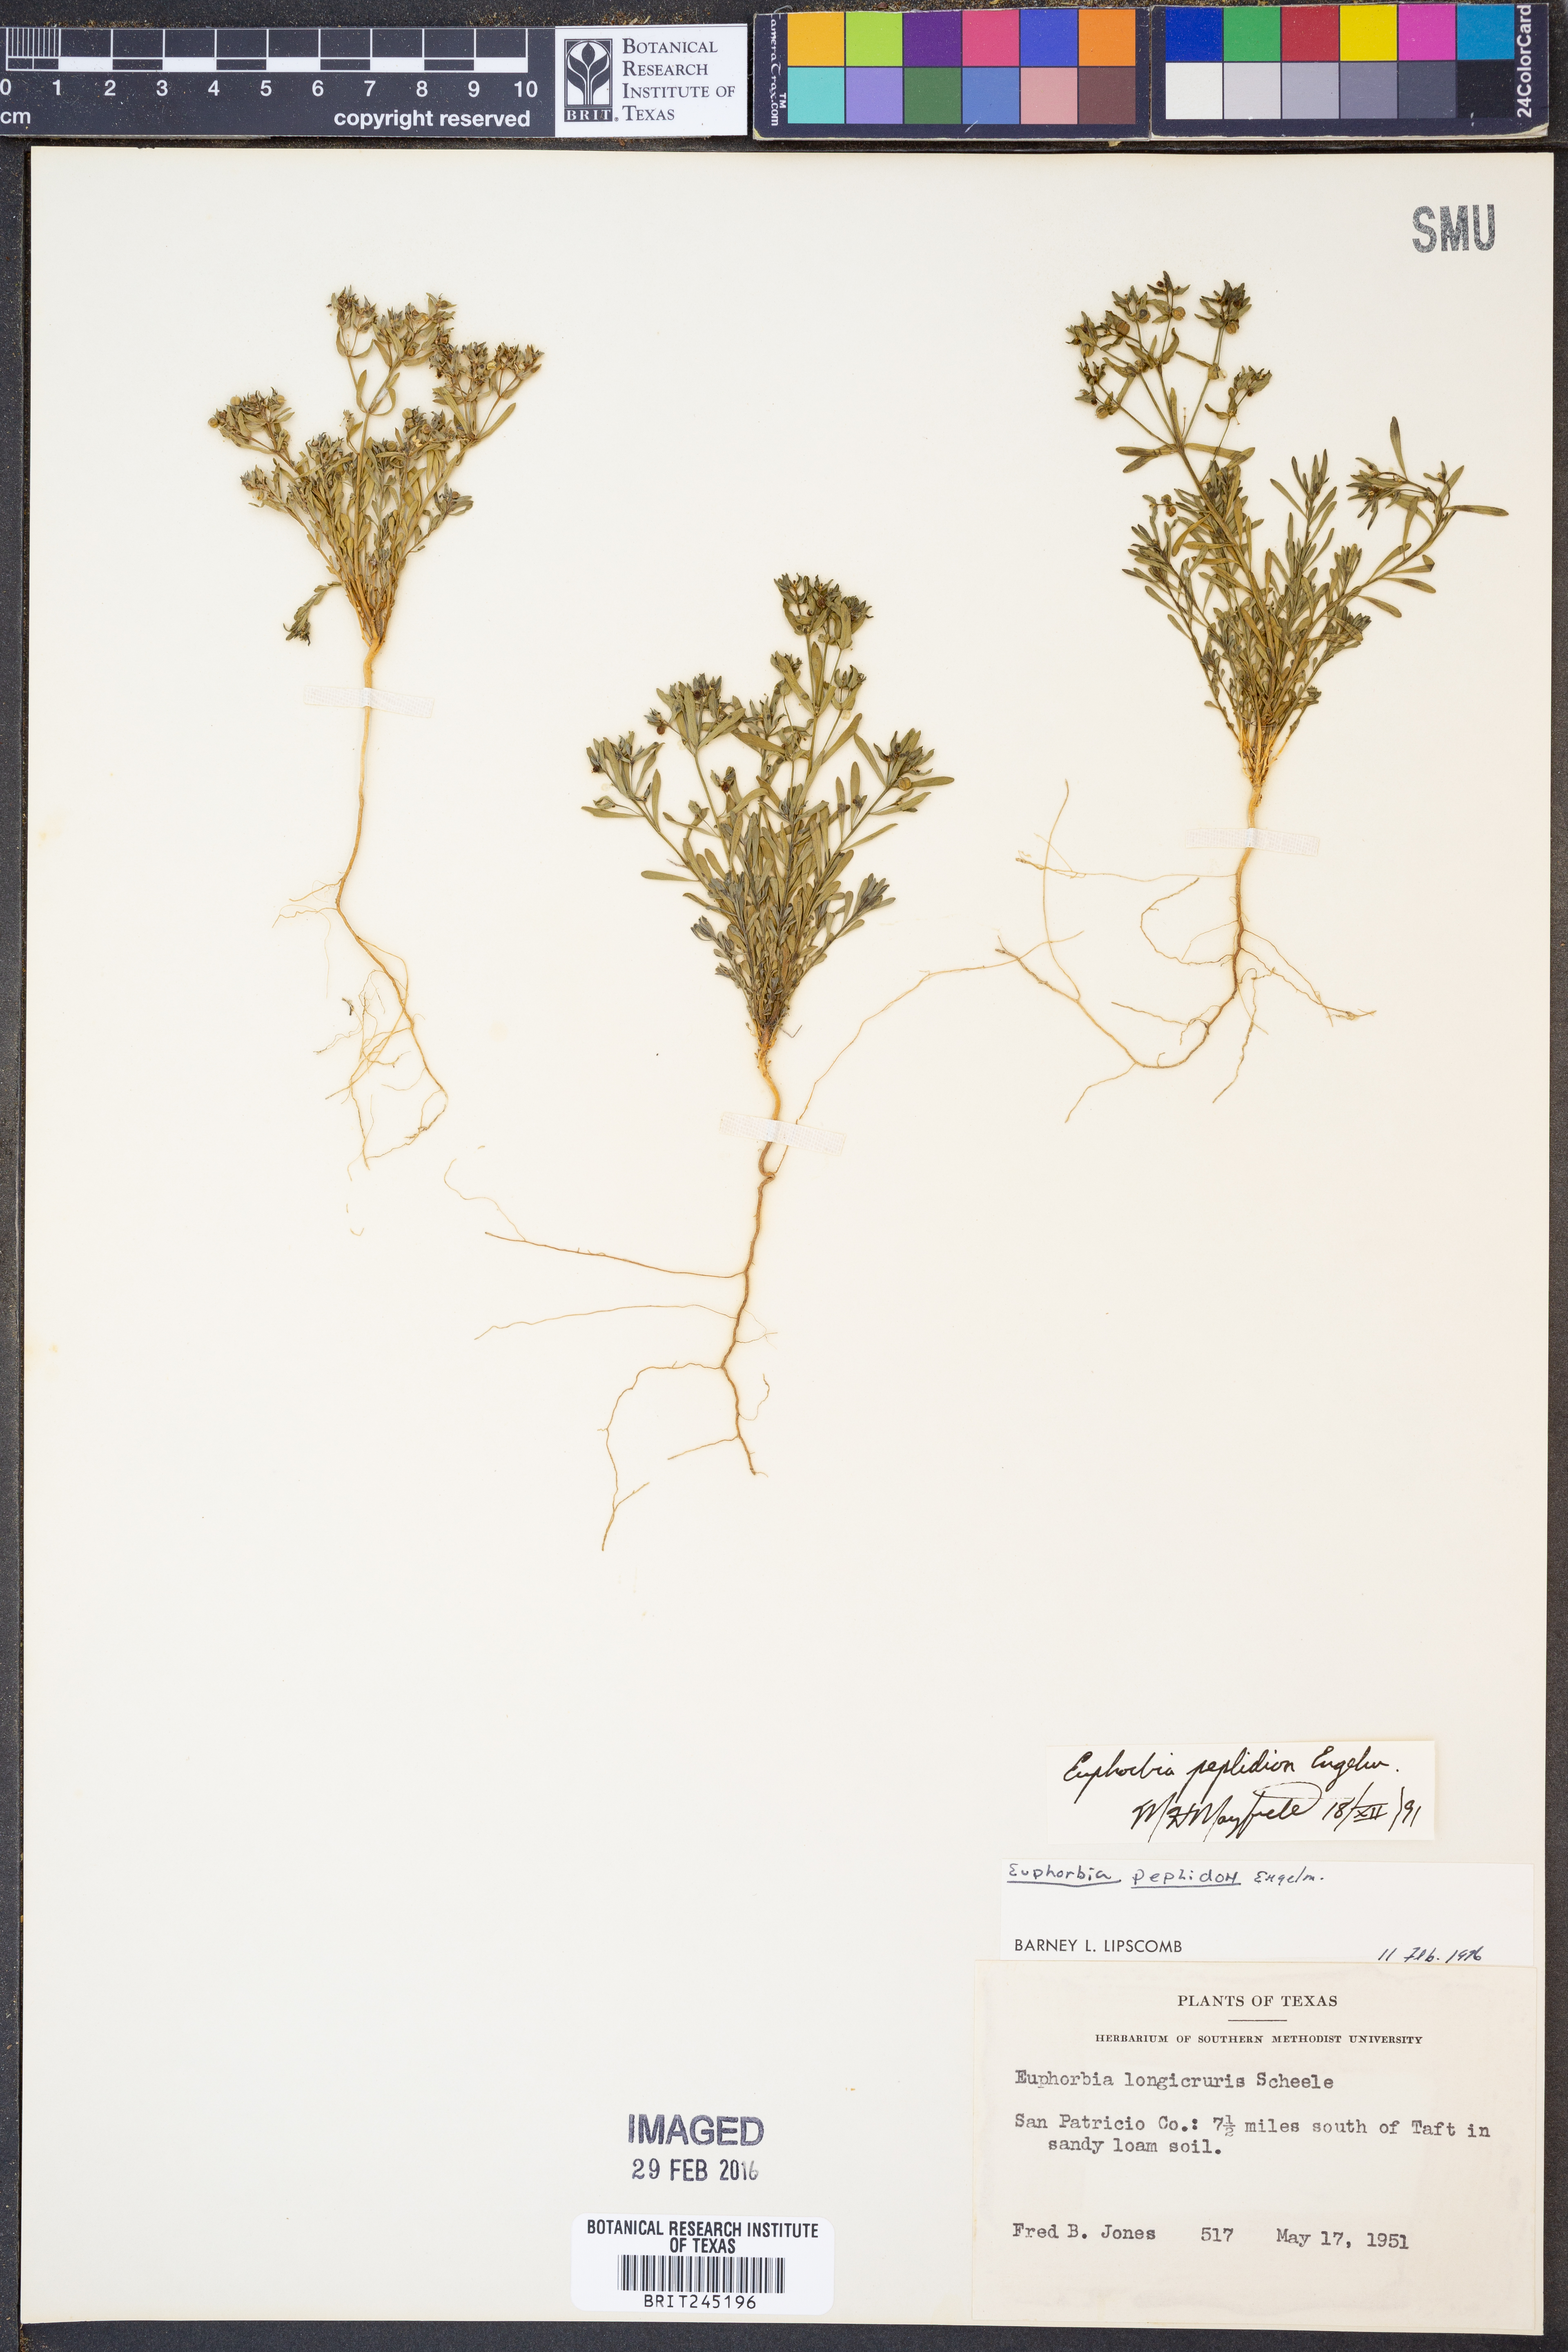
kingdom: Plantae
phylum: Tracheophyta
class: Magnoliopsida
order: Malpighiales
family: Euphorbiaceae
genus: Euphorbia
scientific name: Euphorbia peplidion
